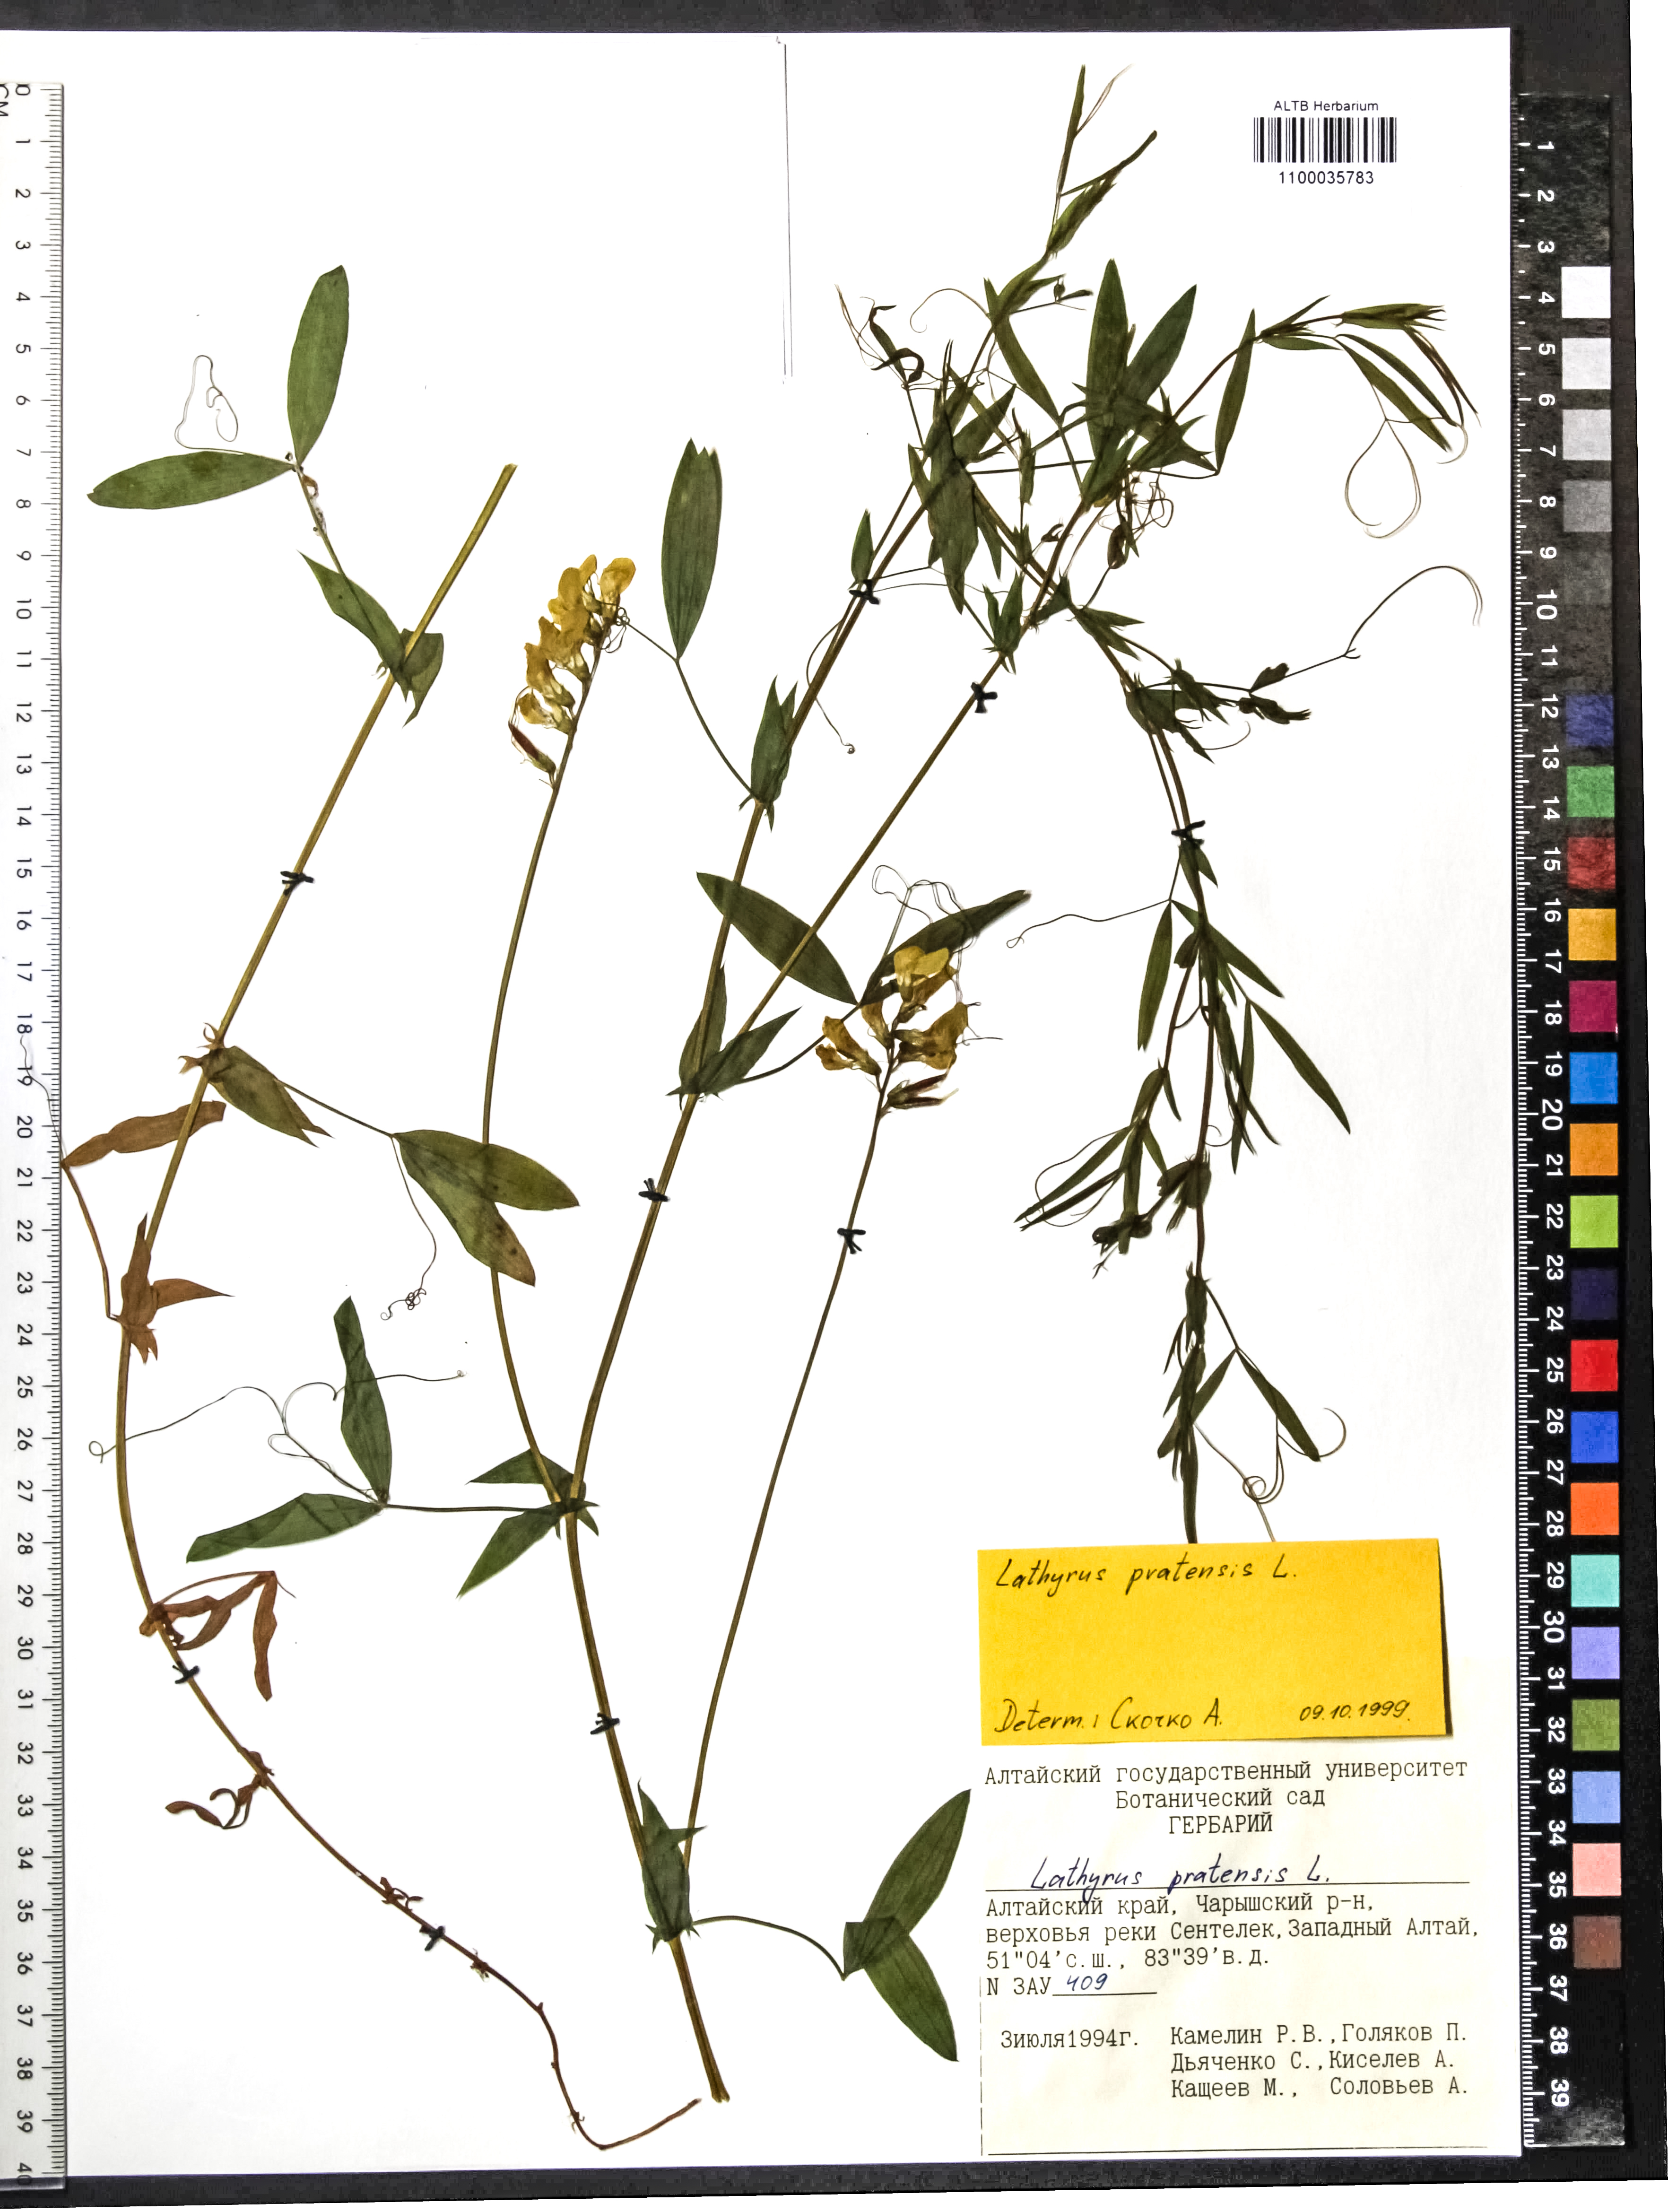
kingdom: Plantae
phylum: Tracheophyta
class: Magnoliopsida
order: Fabales
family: Fabaceae
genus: Lathyrus
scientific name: Lathyrus pratensis
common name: Meadow vetchling
